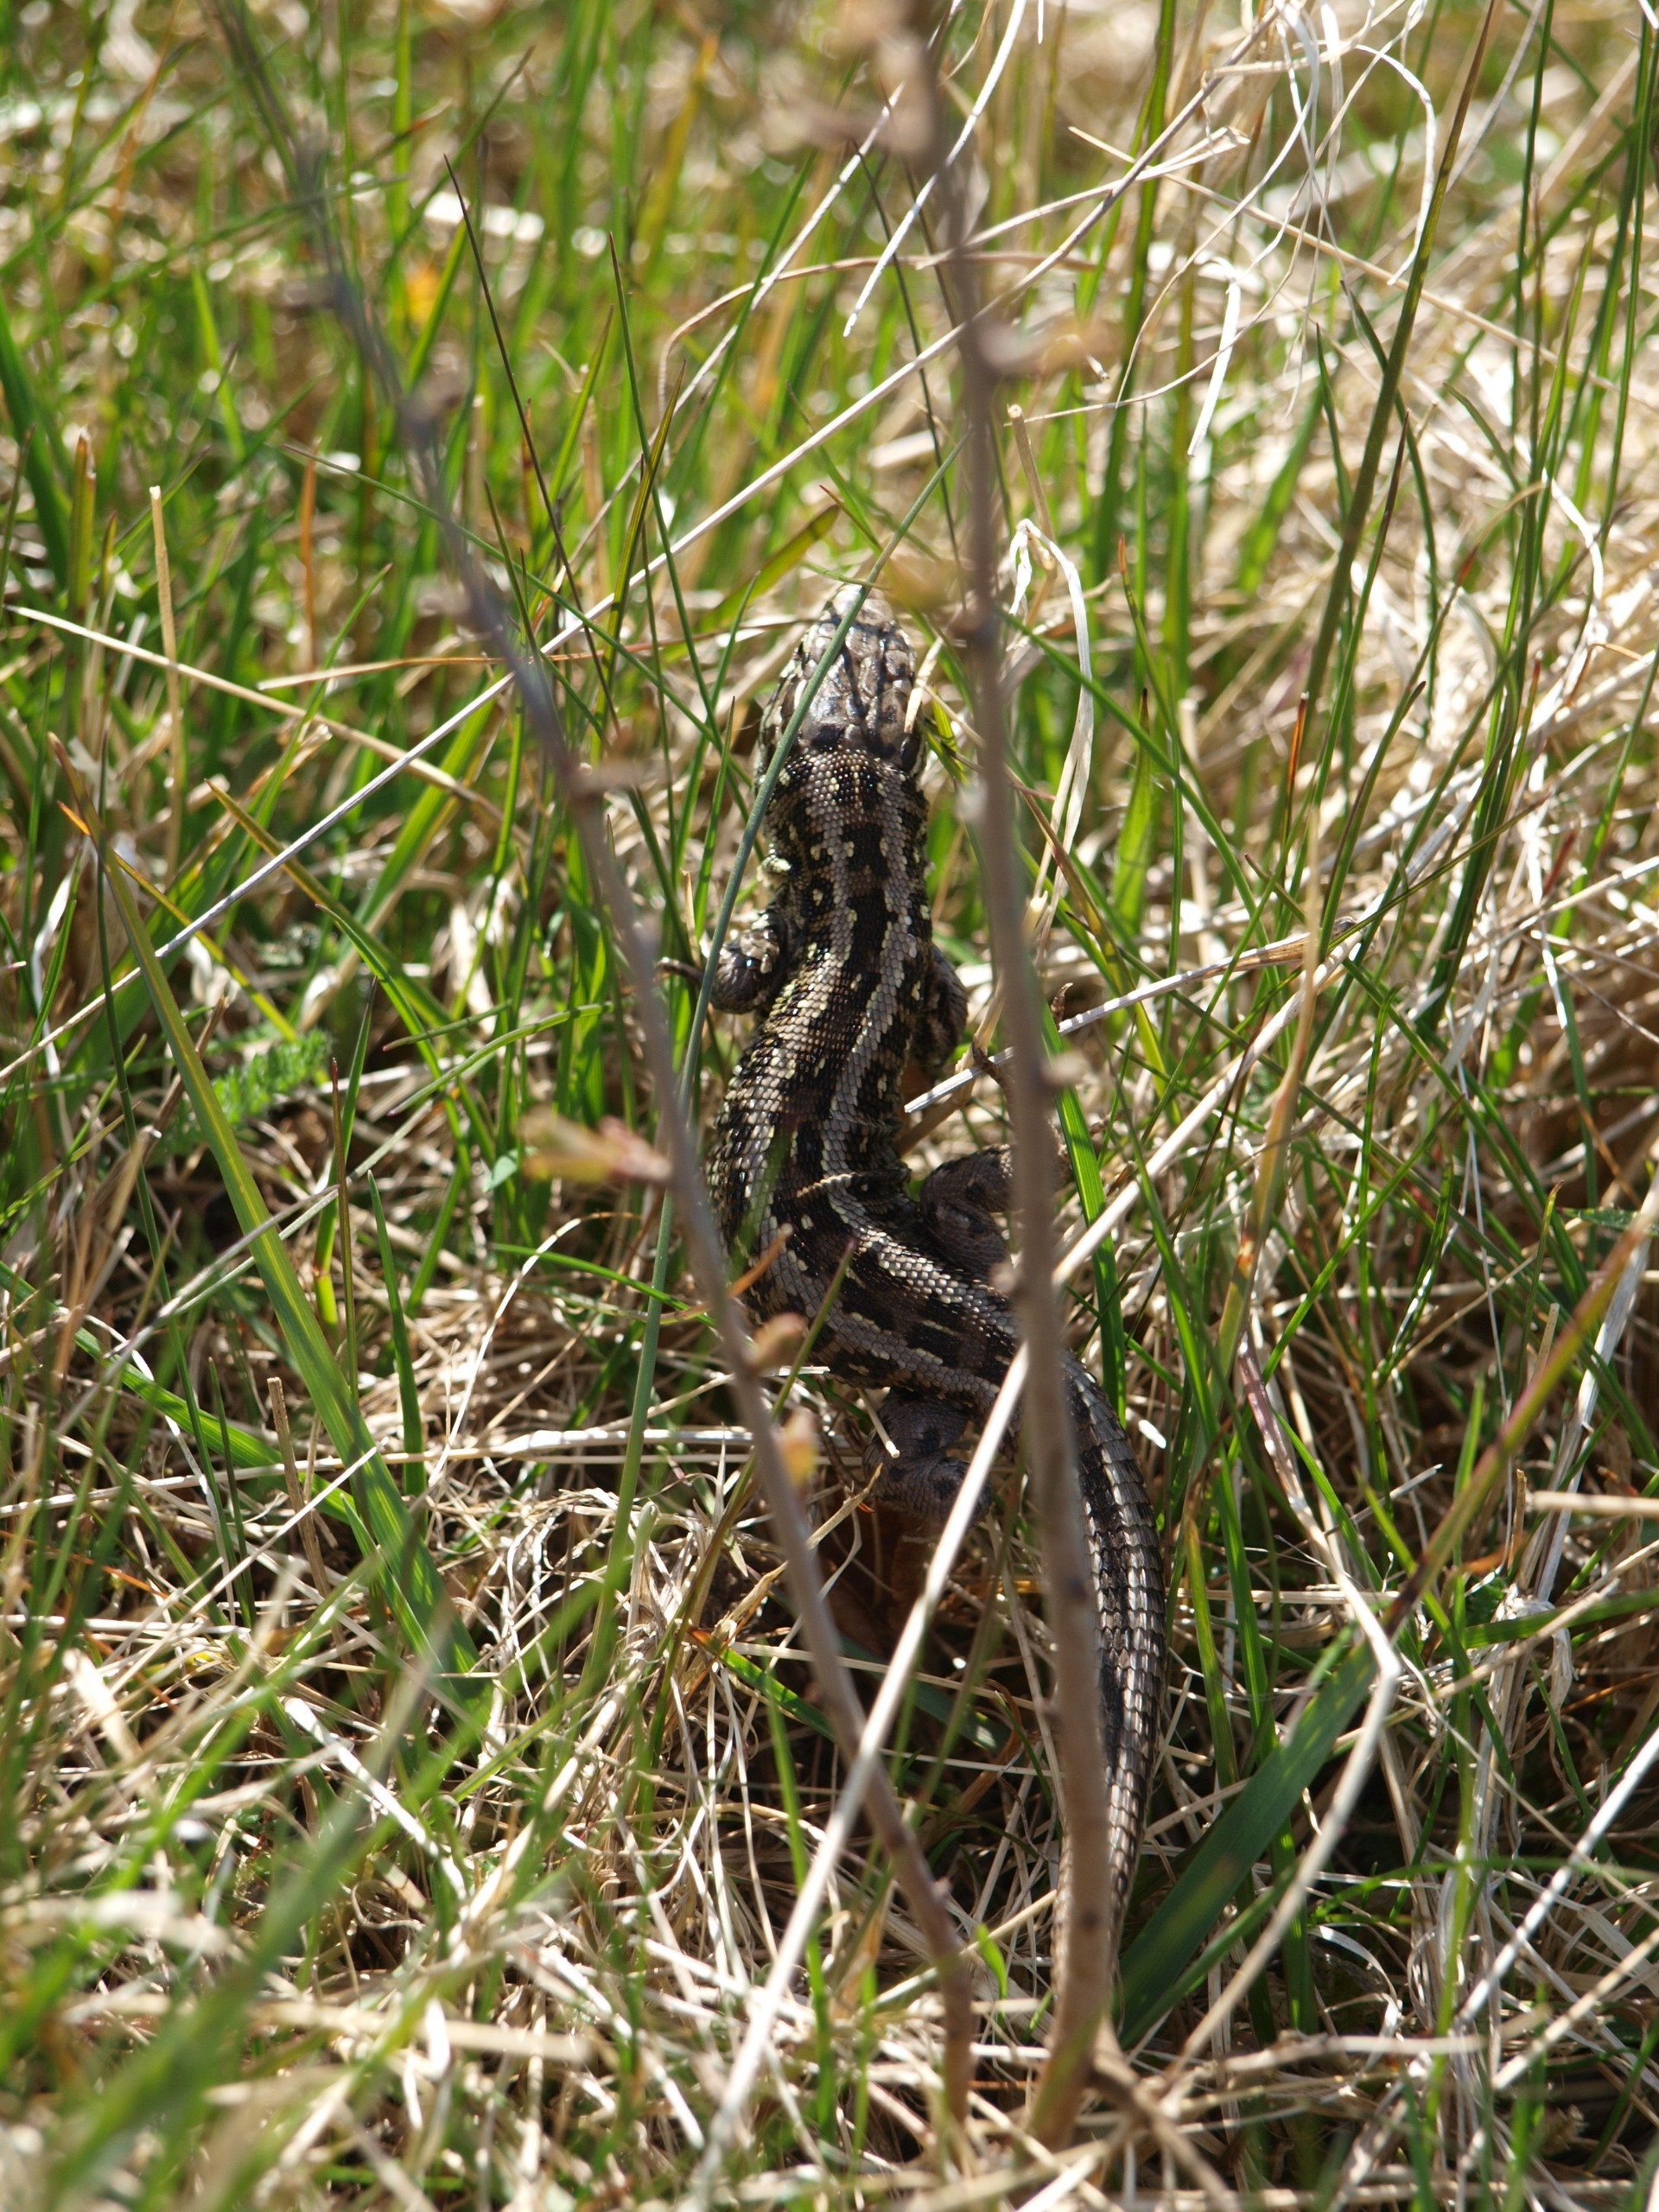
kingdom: Animalia
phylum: Chordata
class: Squamata
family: Lacertidae
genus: Lacerta
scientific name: Lacerta agilis
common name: Markfirben
